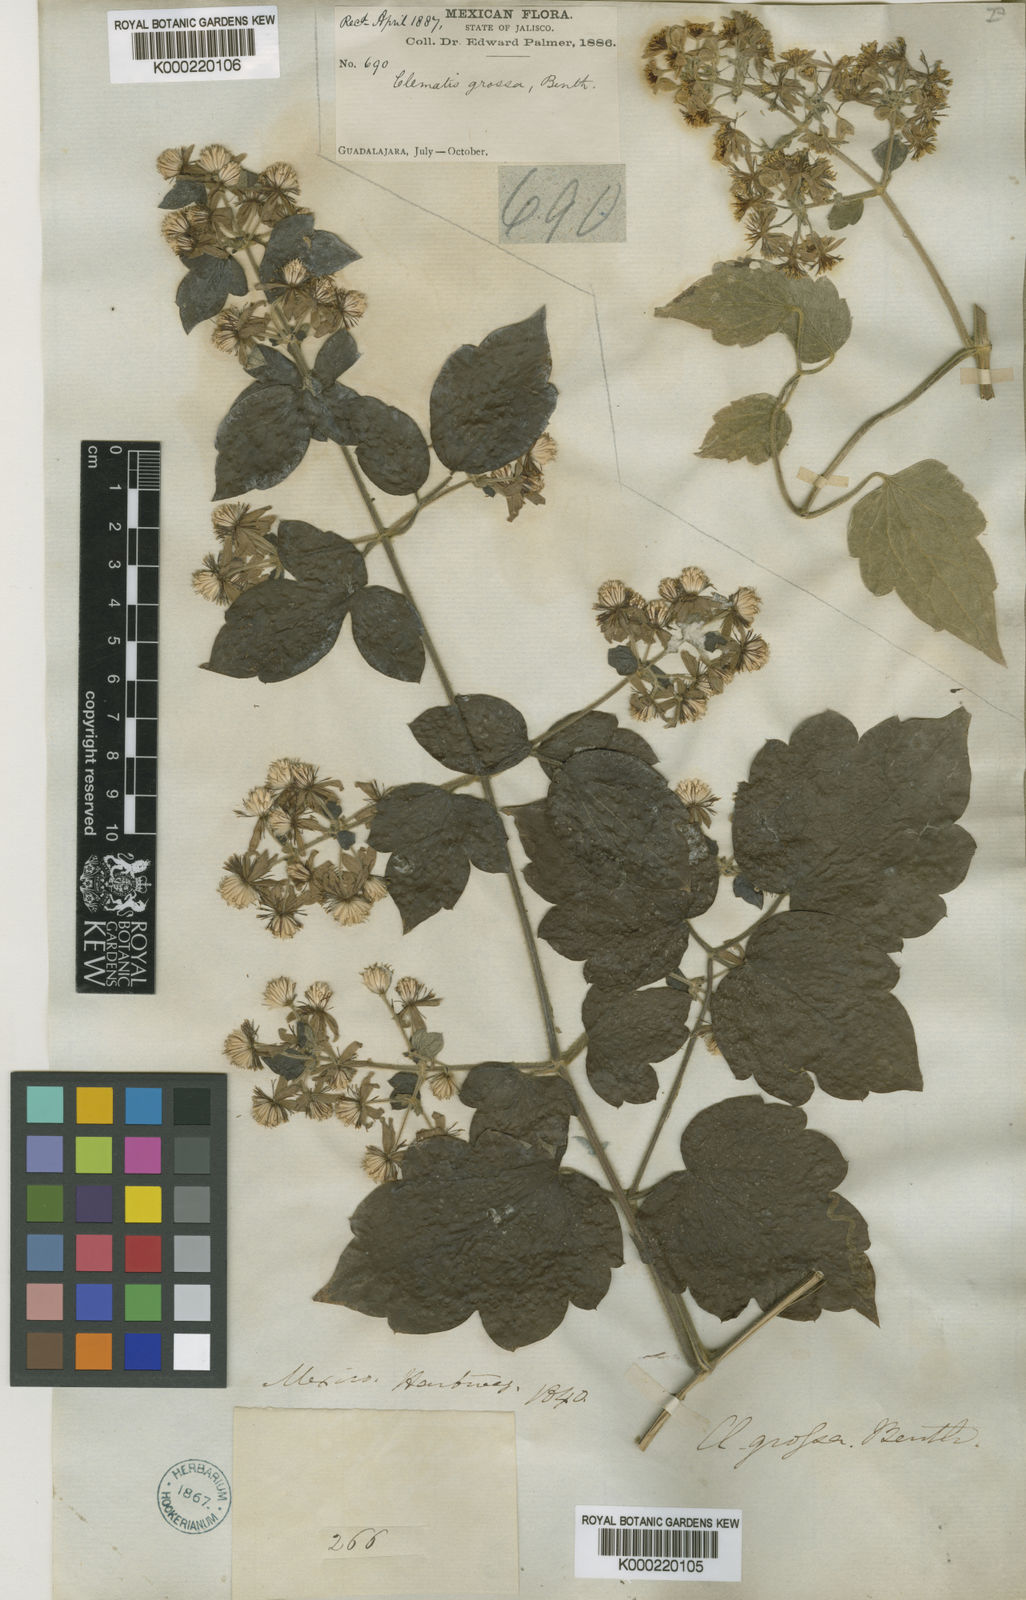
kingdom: Plantae
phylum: Tracheophyta
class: Magnoliopsida
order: Ranunculales
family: Ranunculaceae
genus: Clematis
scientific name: Clematis grossa
